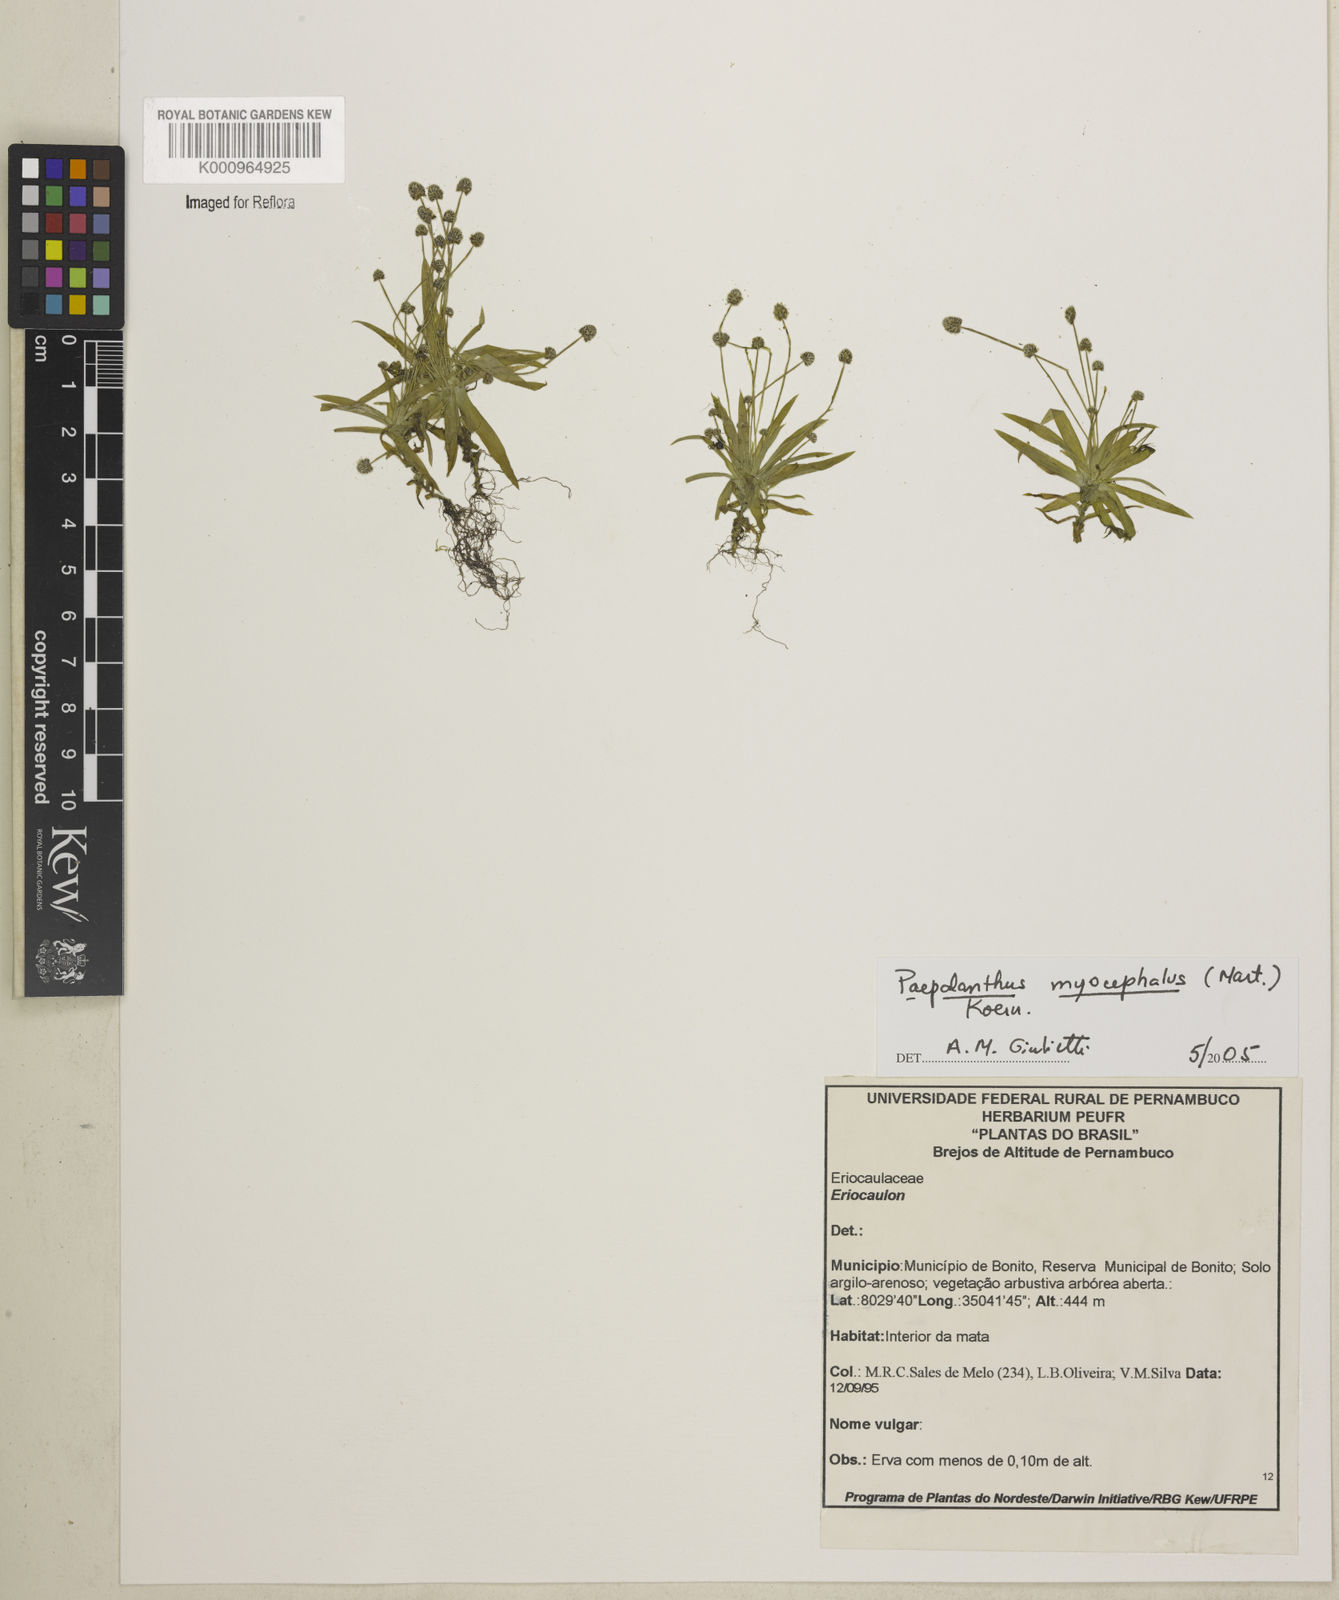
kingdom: Plantae
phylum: Tracheophyta
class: Liliopsida
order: Poales
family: Eriocaulaceae
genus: Paepalanthus
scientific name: Paepalanthus
